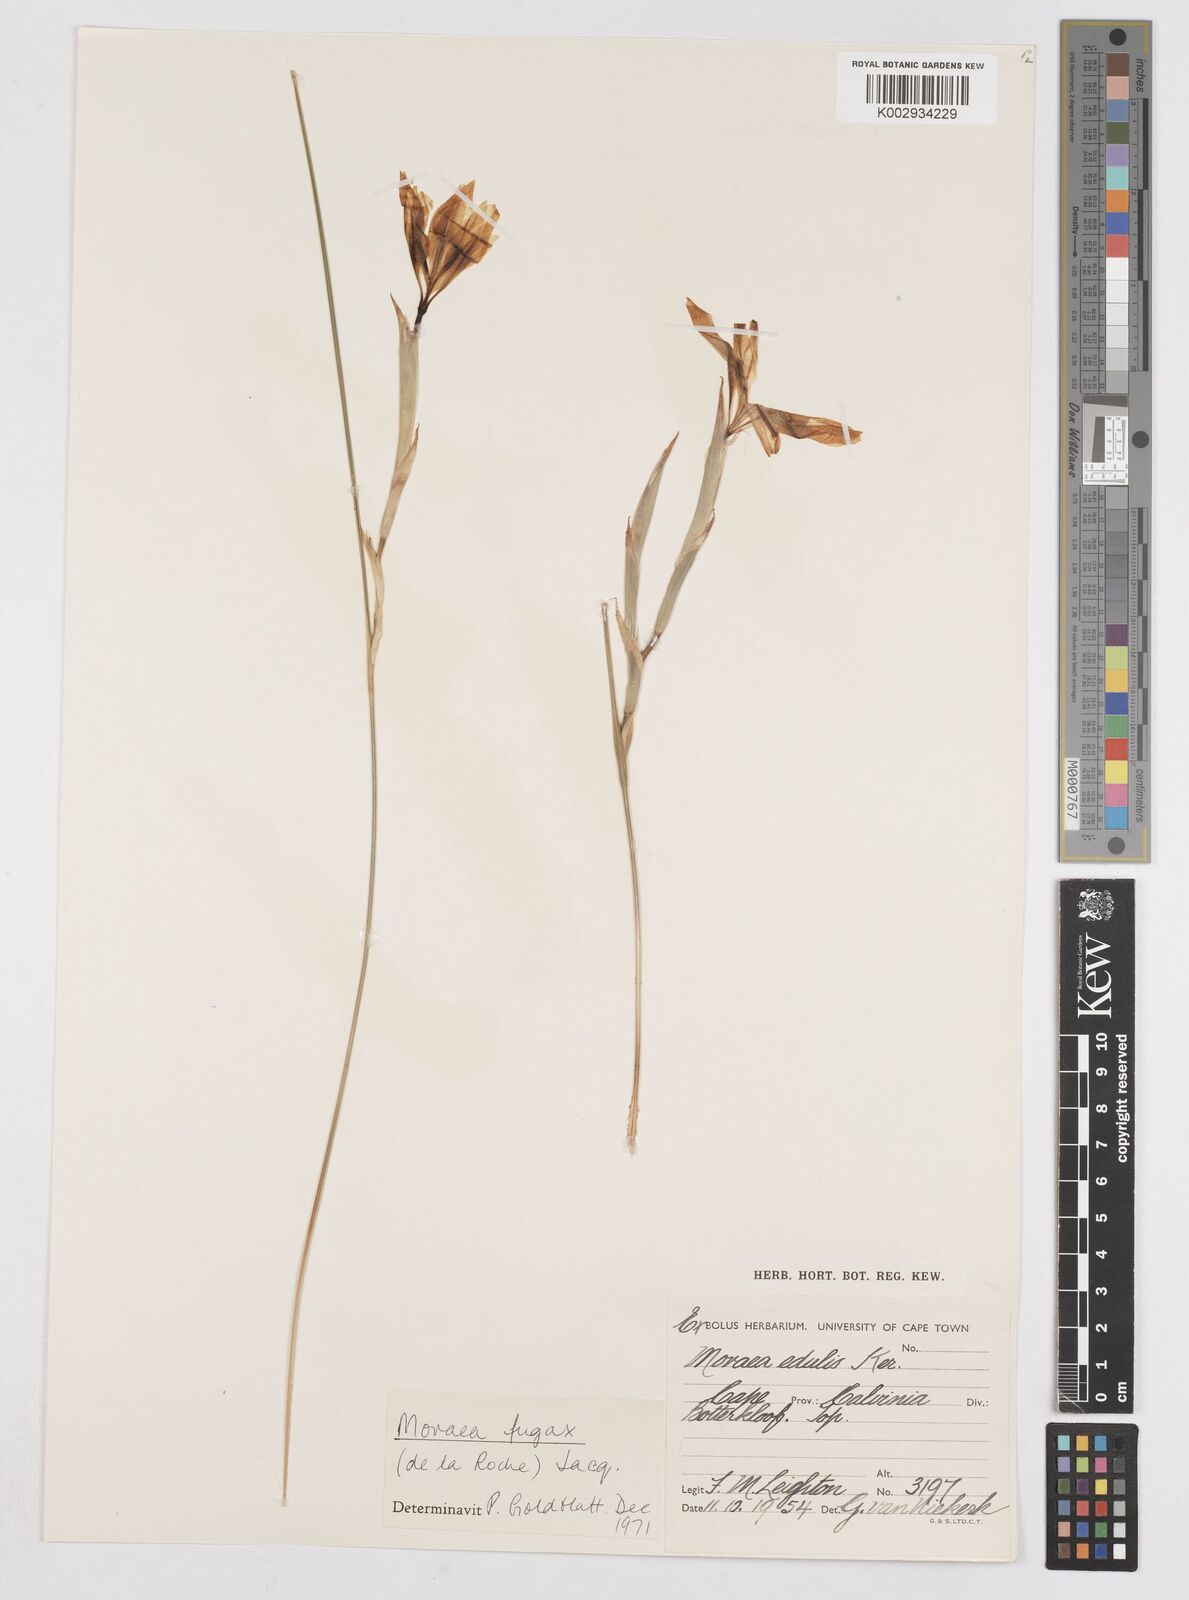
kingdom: Plantae
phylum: Tracheophyta
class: Liliopsida
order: Asparagales
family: Iridaceae
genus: Moraea
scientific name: Moraea fugax
